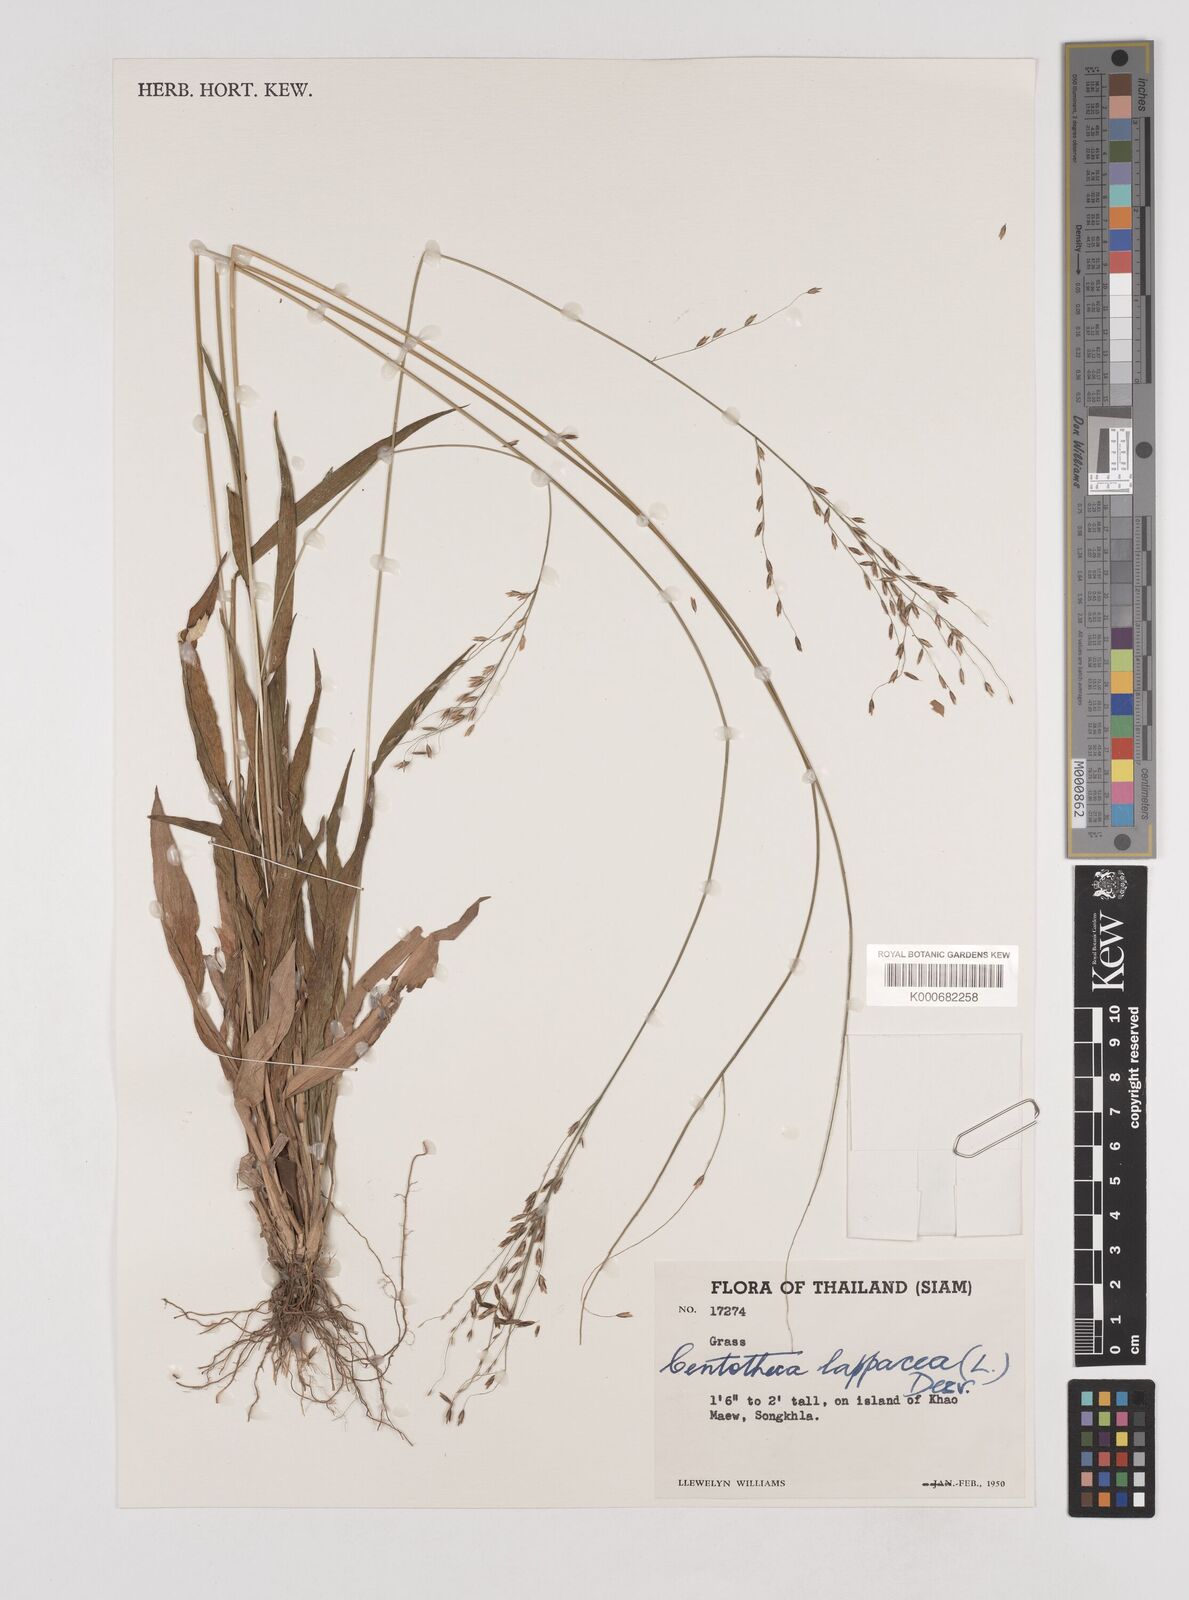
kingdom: Plantae
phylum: Tracheophyta
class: Liliopsida
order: Poales
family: Poaceae
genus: Centotheca
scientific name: Centotheca lappacea
